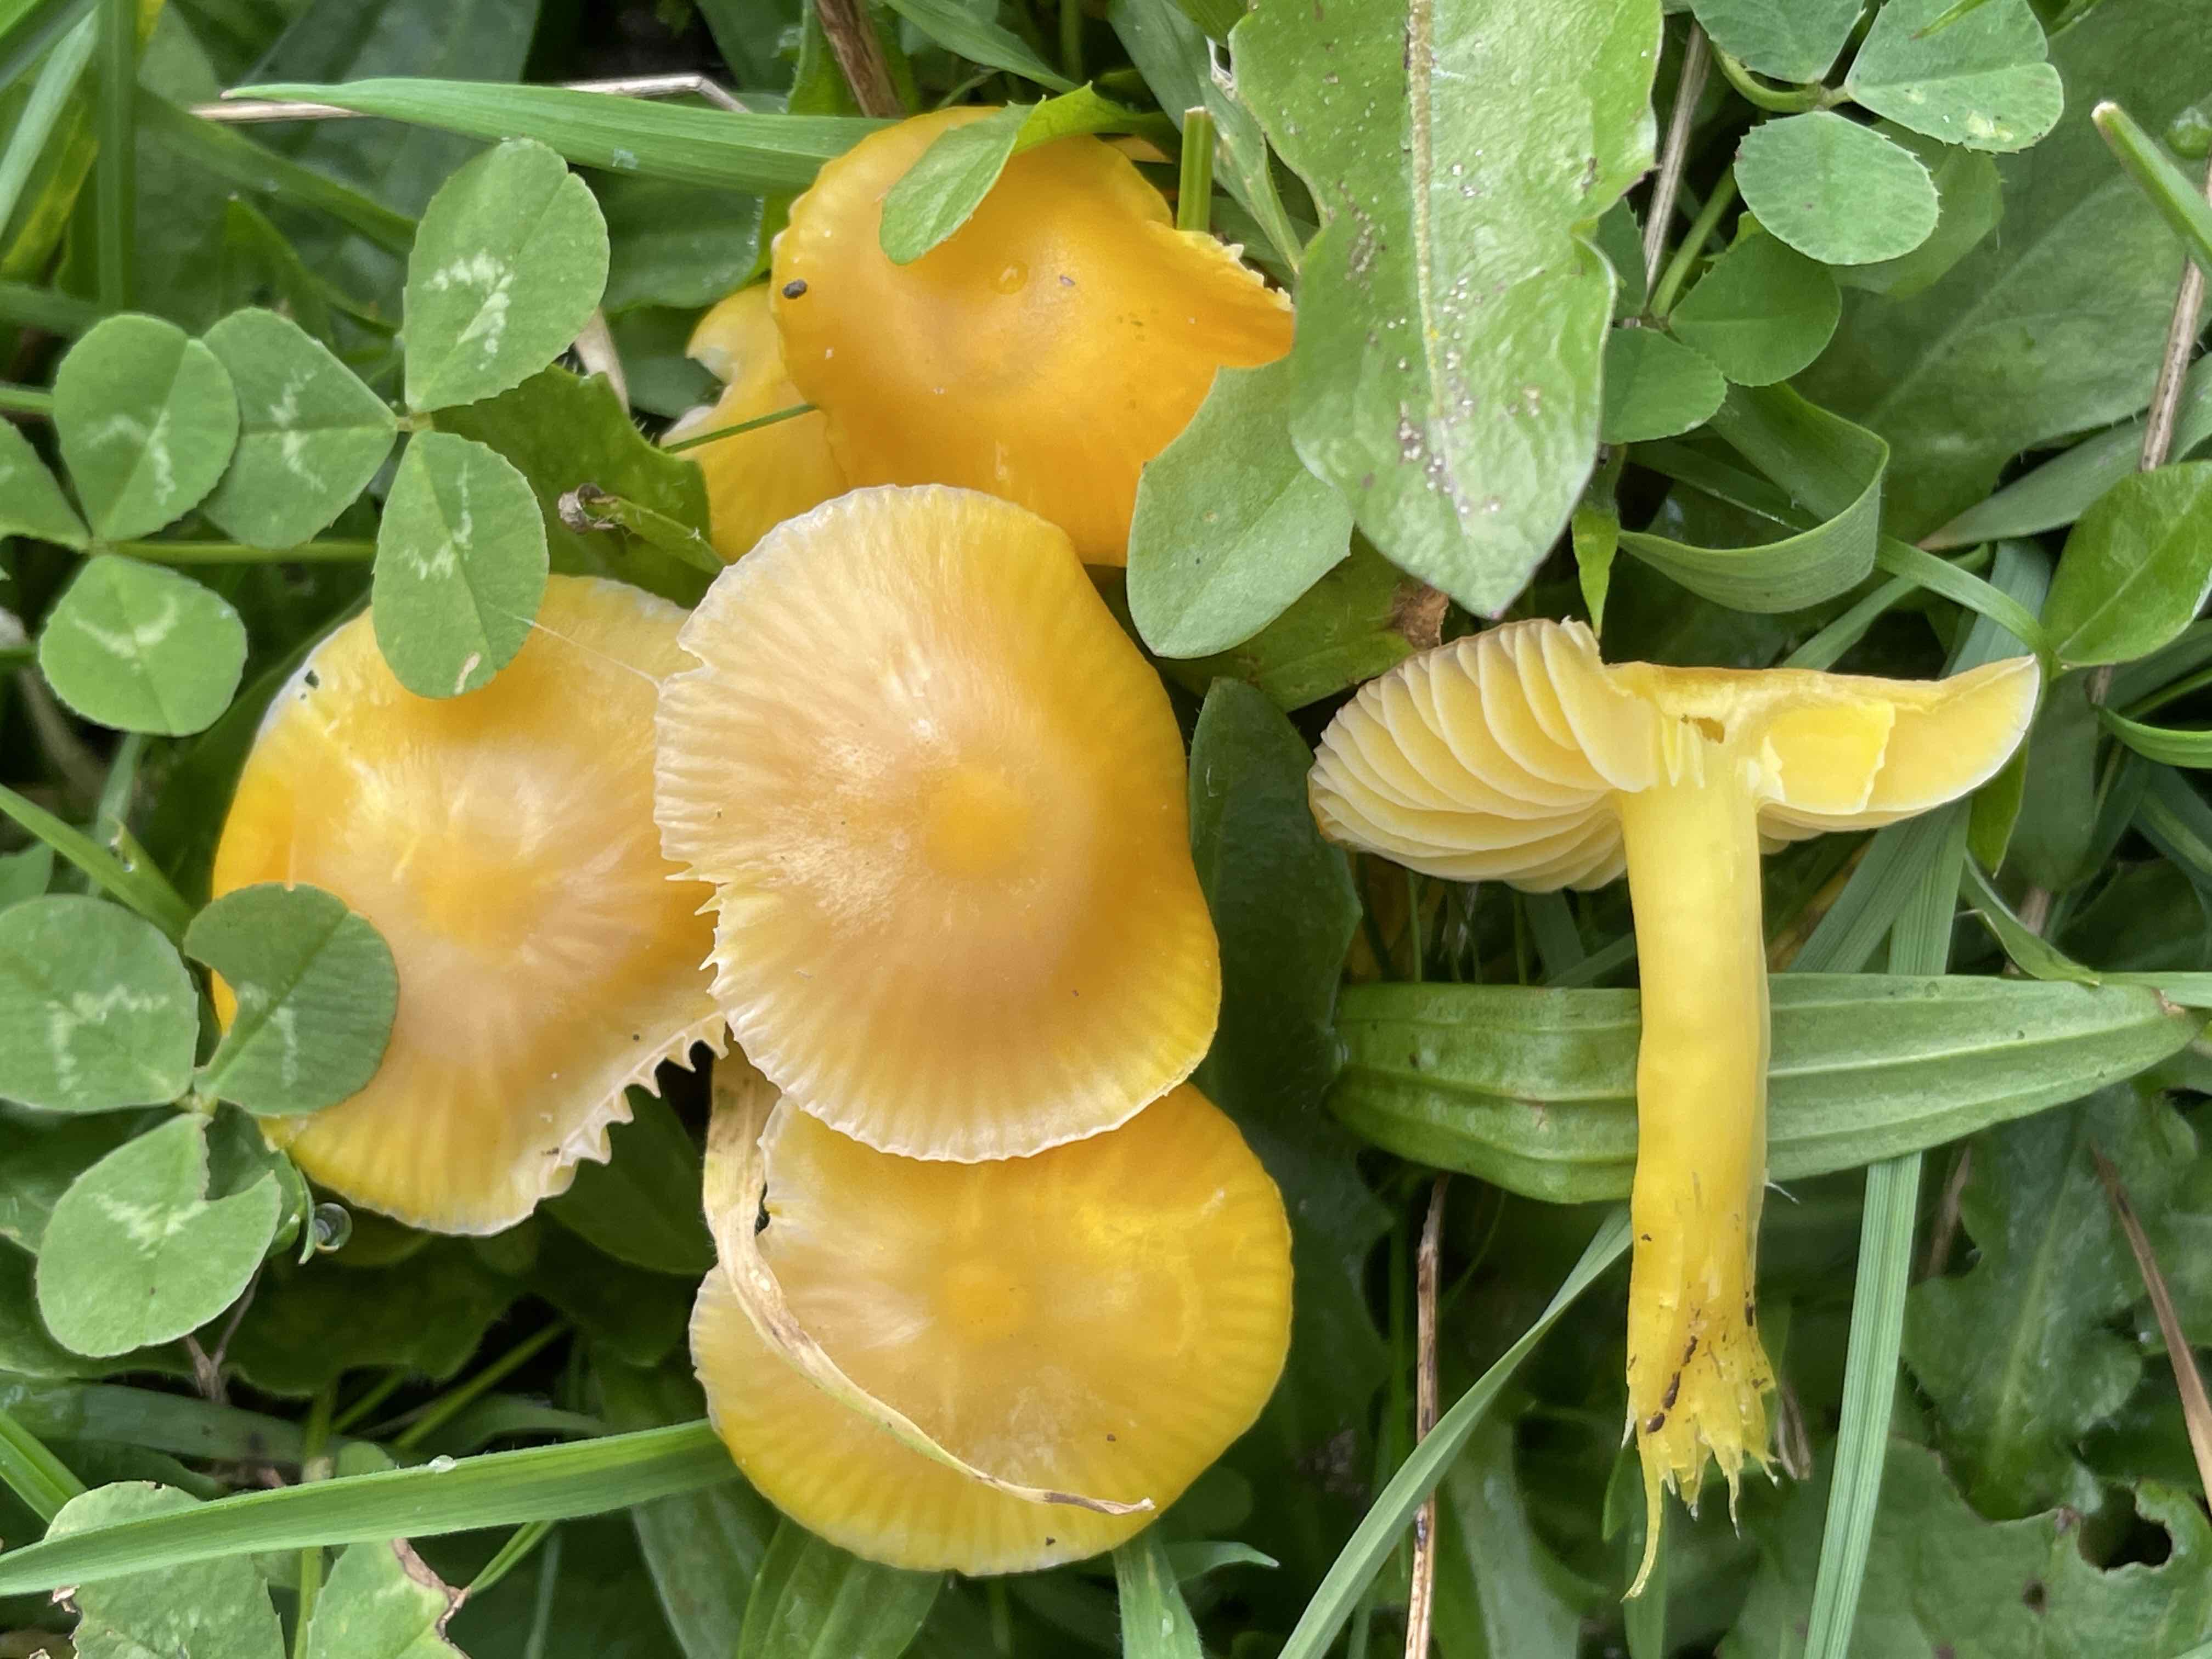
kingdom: Fungi
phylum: Basidiomycota
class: Agaricomycetes
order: Agaricales
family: Hygrophoraceae
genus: Hygrocybe
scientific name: Hygrocybe chlorophana
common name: gul vokshat
